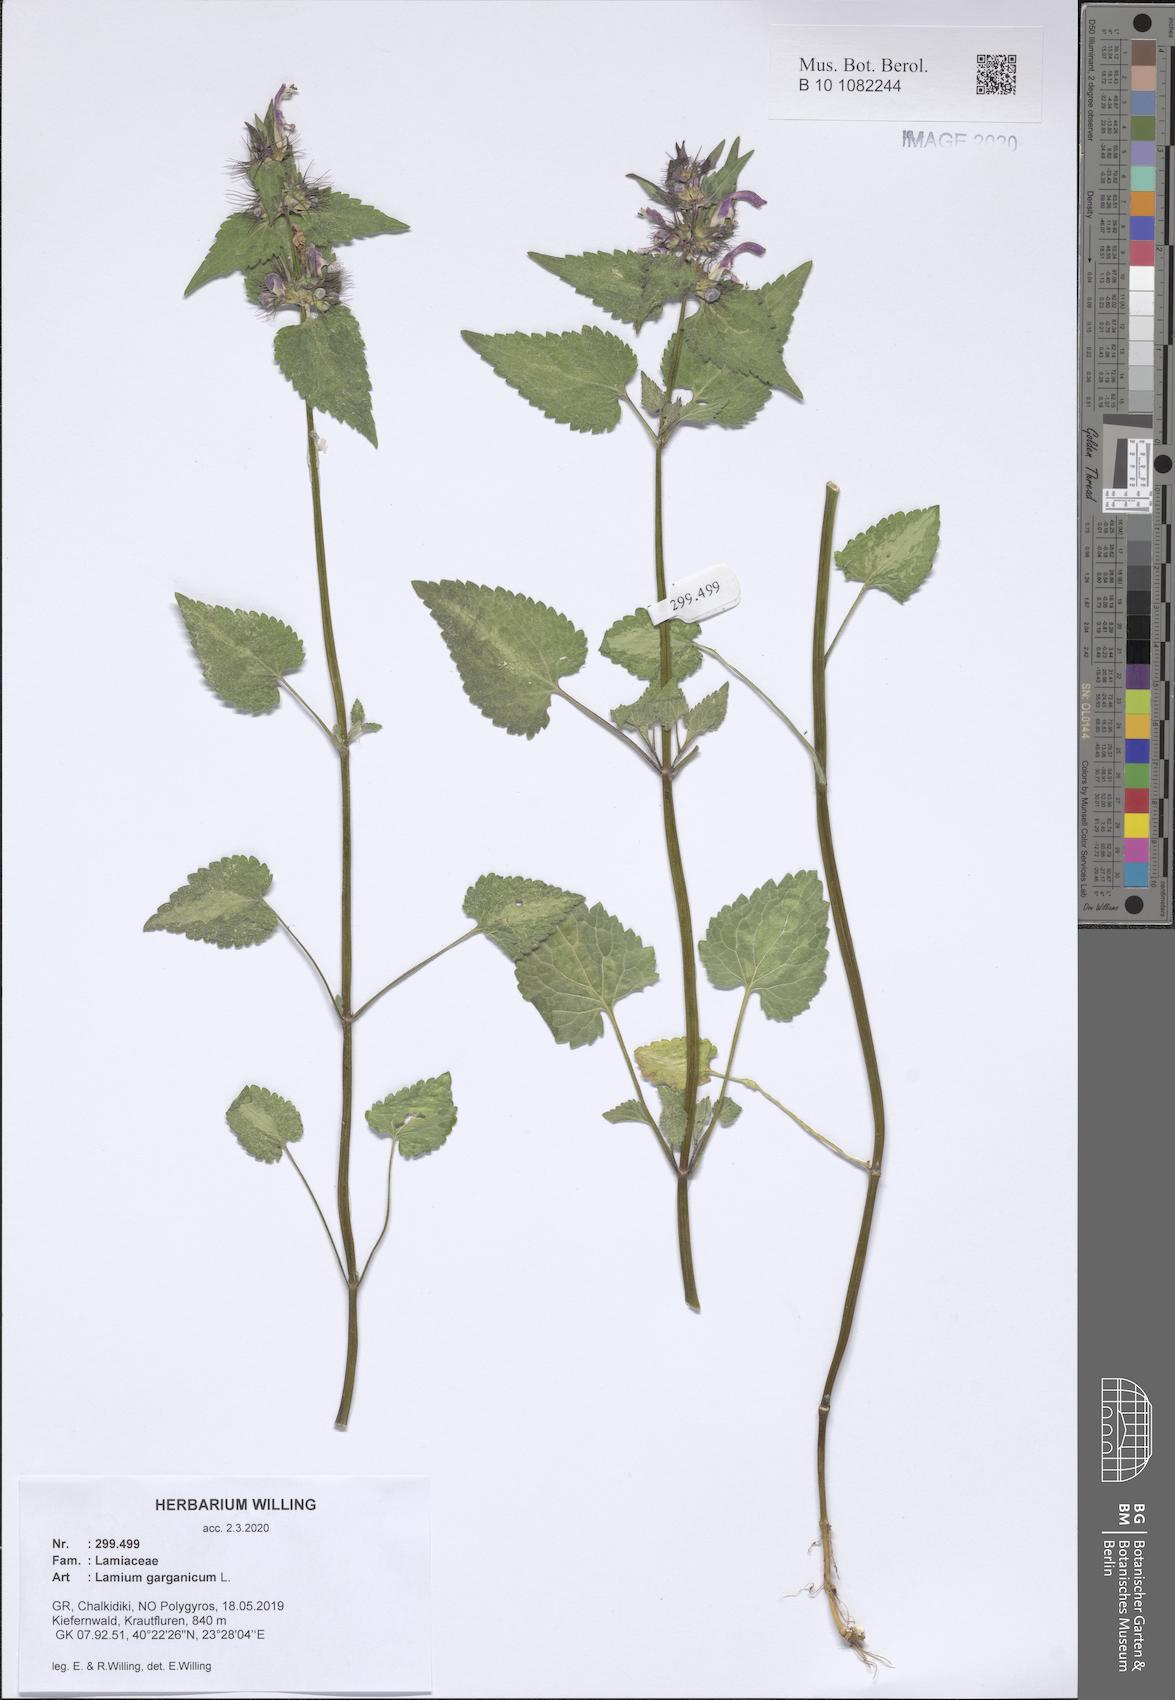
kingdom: Plantae
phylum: Tracheophyta
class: Magnoliopsida
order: Lamiales
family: Lamiaceae
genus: Lamium
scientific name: Lamium garganicum
